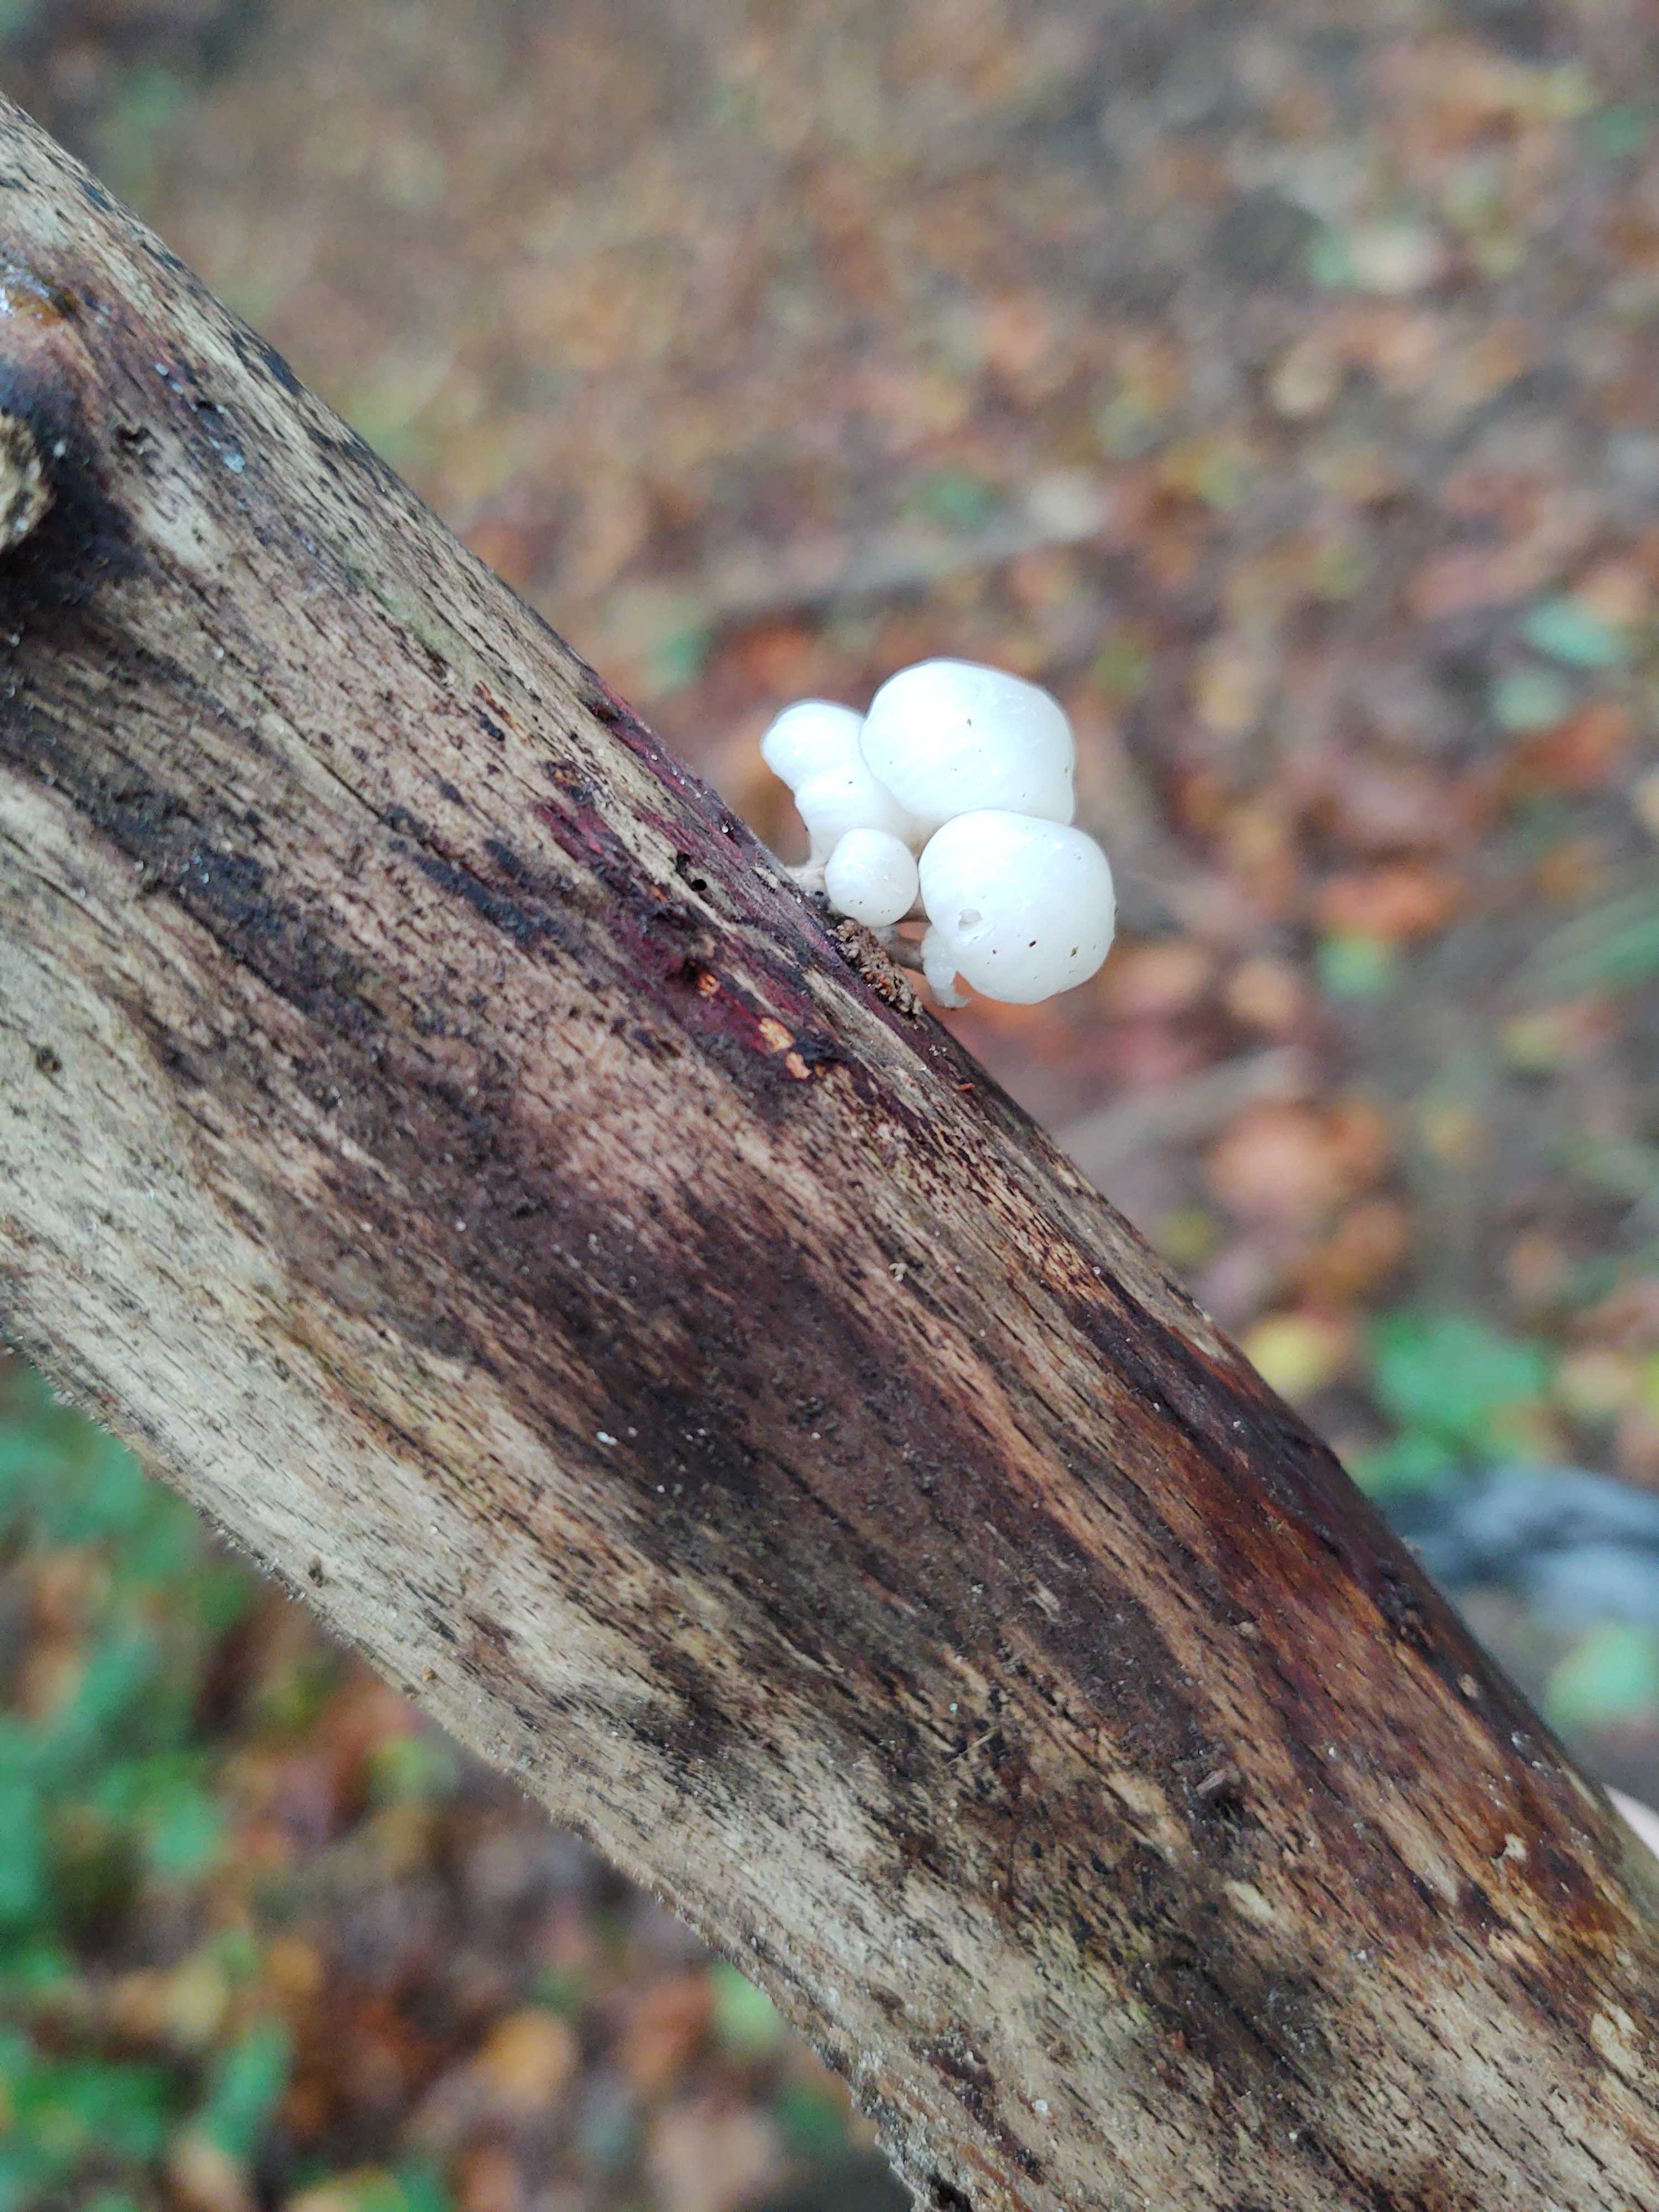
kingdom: Fungi
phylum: Basidiomycota
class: Agaricomycetes
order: Agaricales
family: Physalacriaceae
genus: Mucidula
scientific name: Mucidula mucida
